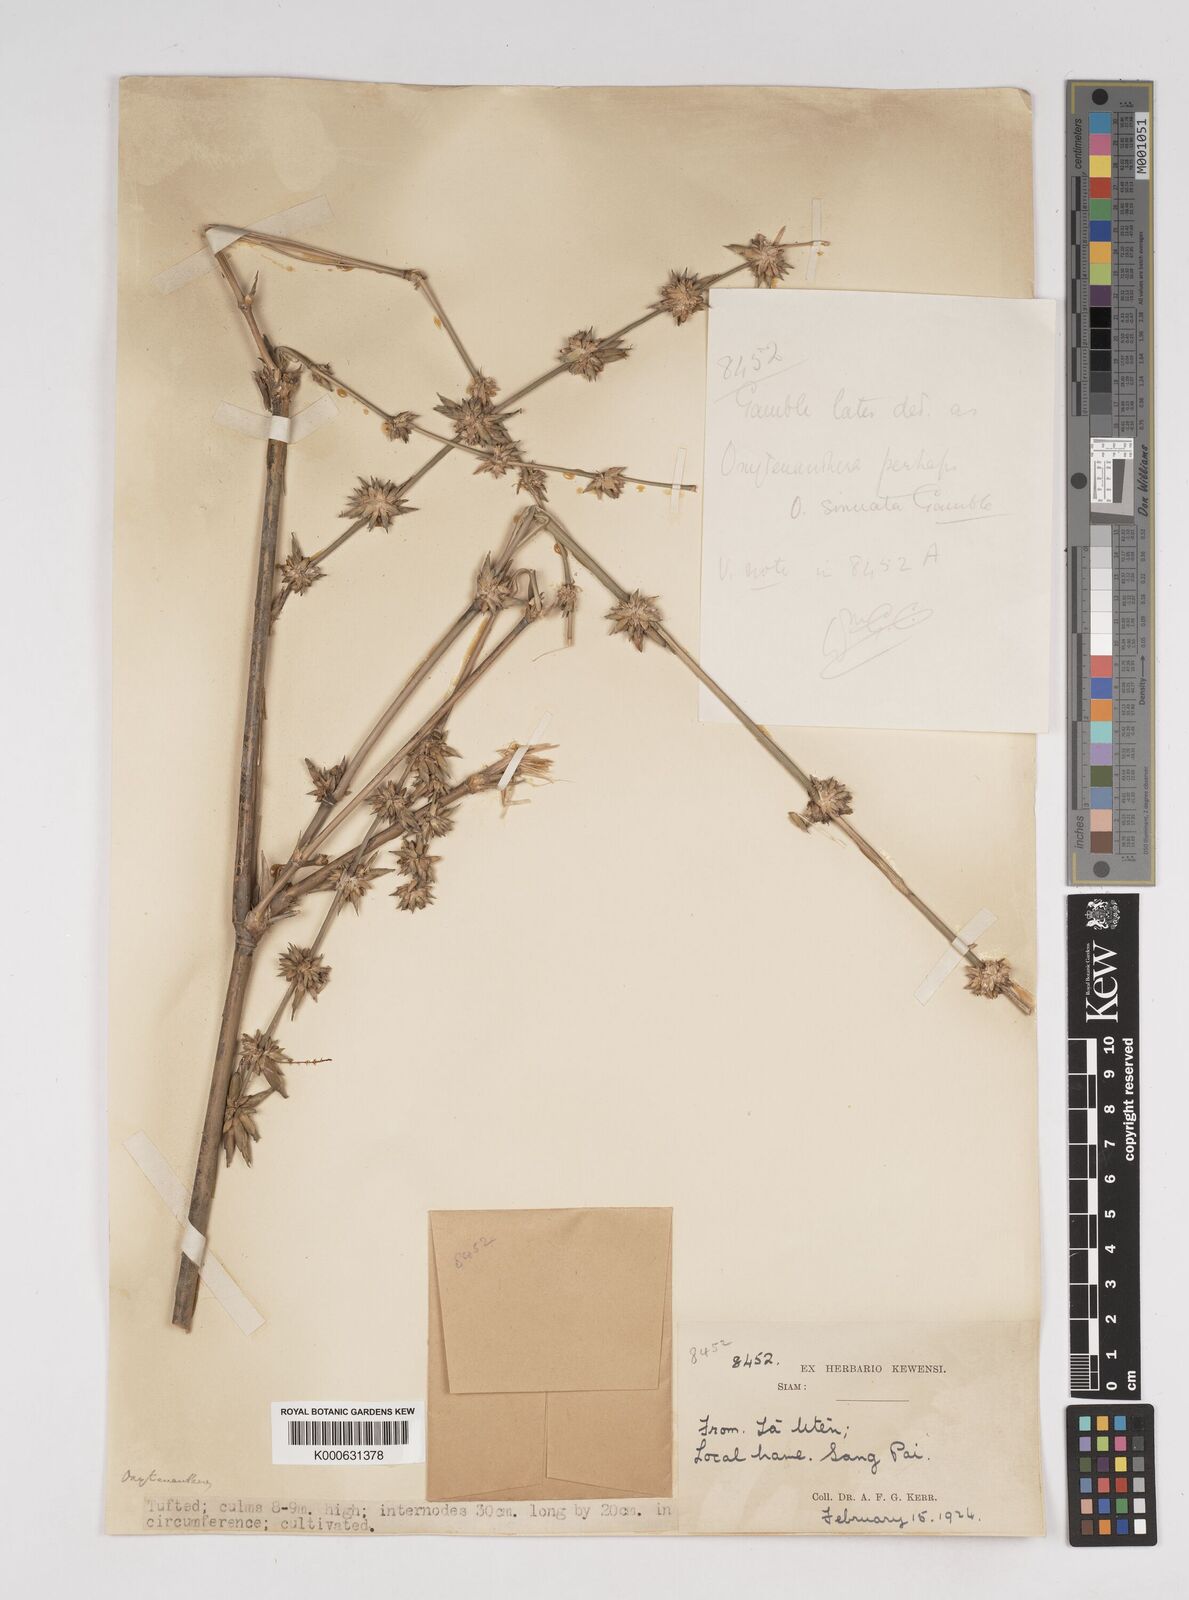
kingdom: Plantae
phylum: Tracheophyta
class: Liliopsida
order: Poales
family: Poaceae
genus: Dendrocalamus
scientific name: Dendrocalamus
